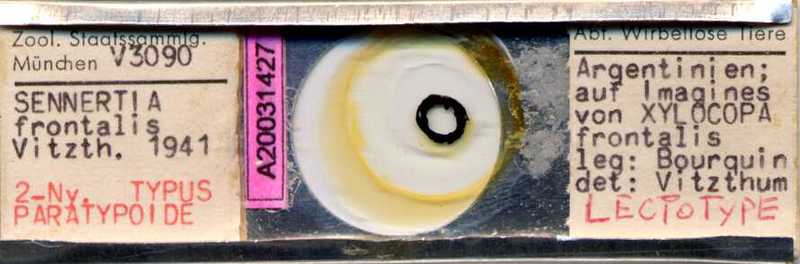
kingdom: Animalia
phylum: Arthropoda
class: Arachnida
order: Sarcoptiformes
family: Chaetodactylidae
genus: Sennertia
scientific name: Sennertia frontalis
